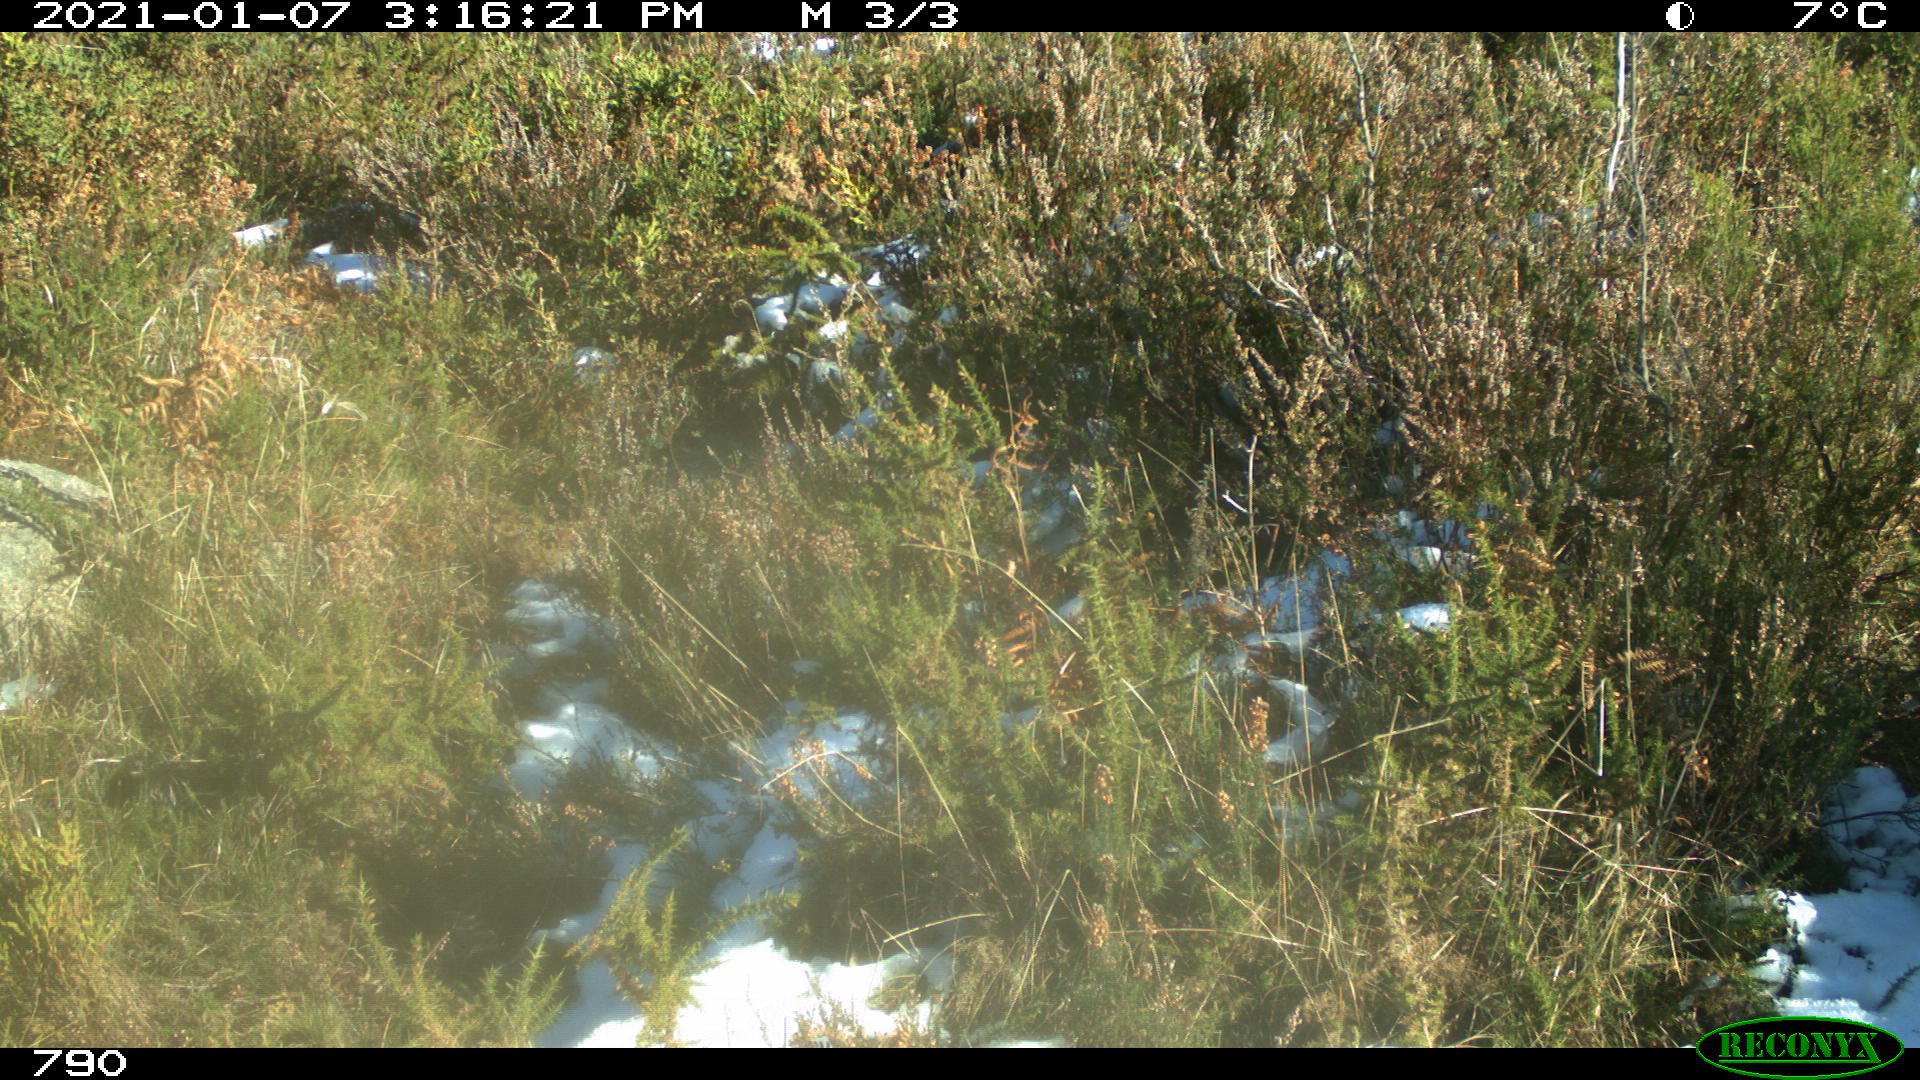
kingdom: Animalia
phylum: Chordata
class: Mammalia
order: Carnivora
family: Canidae
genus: Vulpes
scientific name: Vulpes vulpes
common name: Red fox
